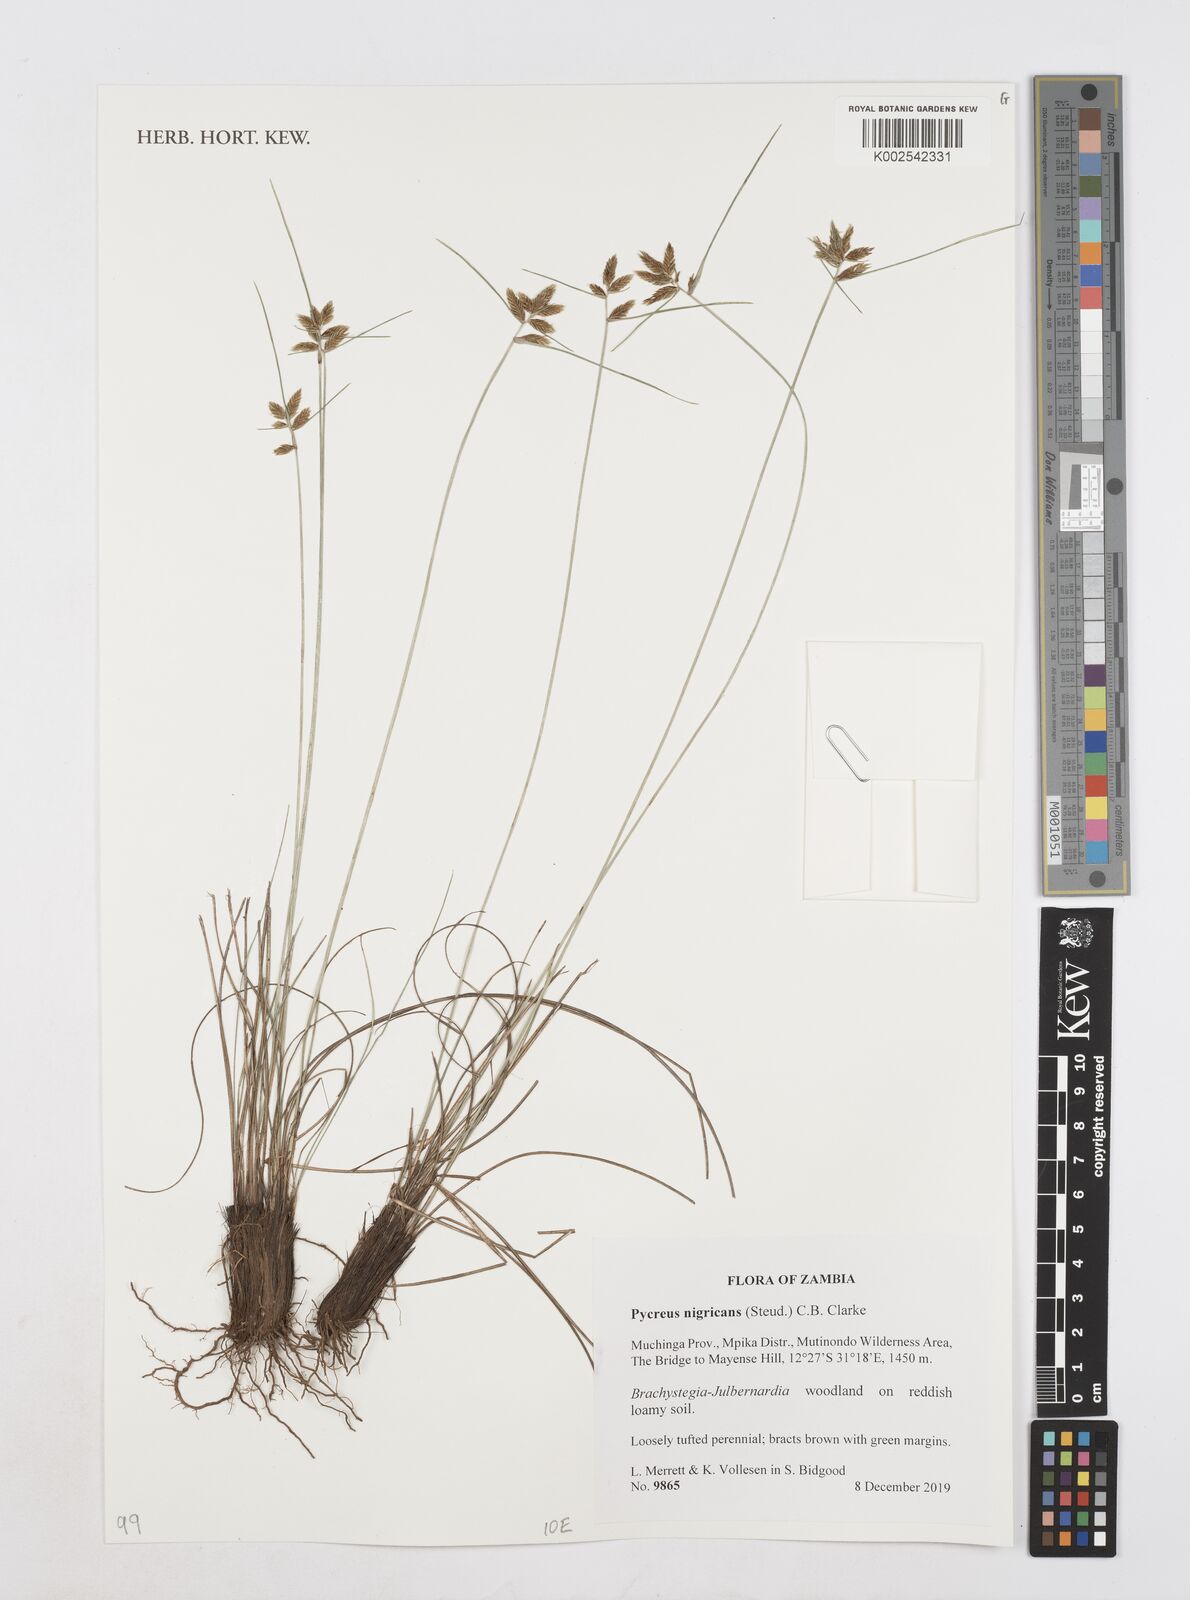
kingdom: Plantae
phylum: Tracheophyta
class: Liliopsida
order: Poales
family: Cyperaceae
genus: Cyperus
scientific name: Cyperus nigricans
